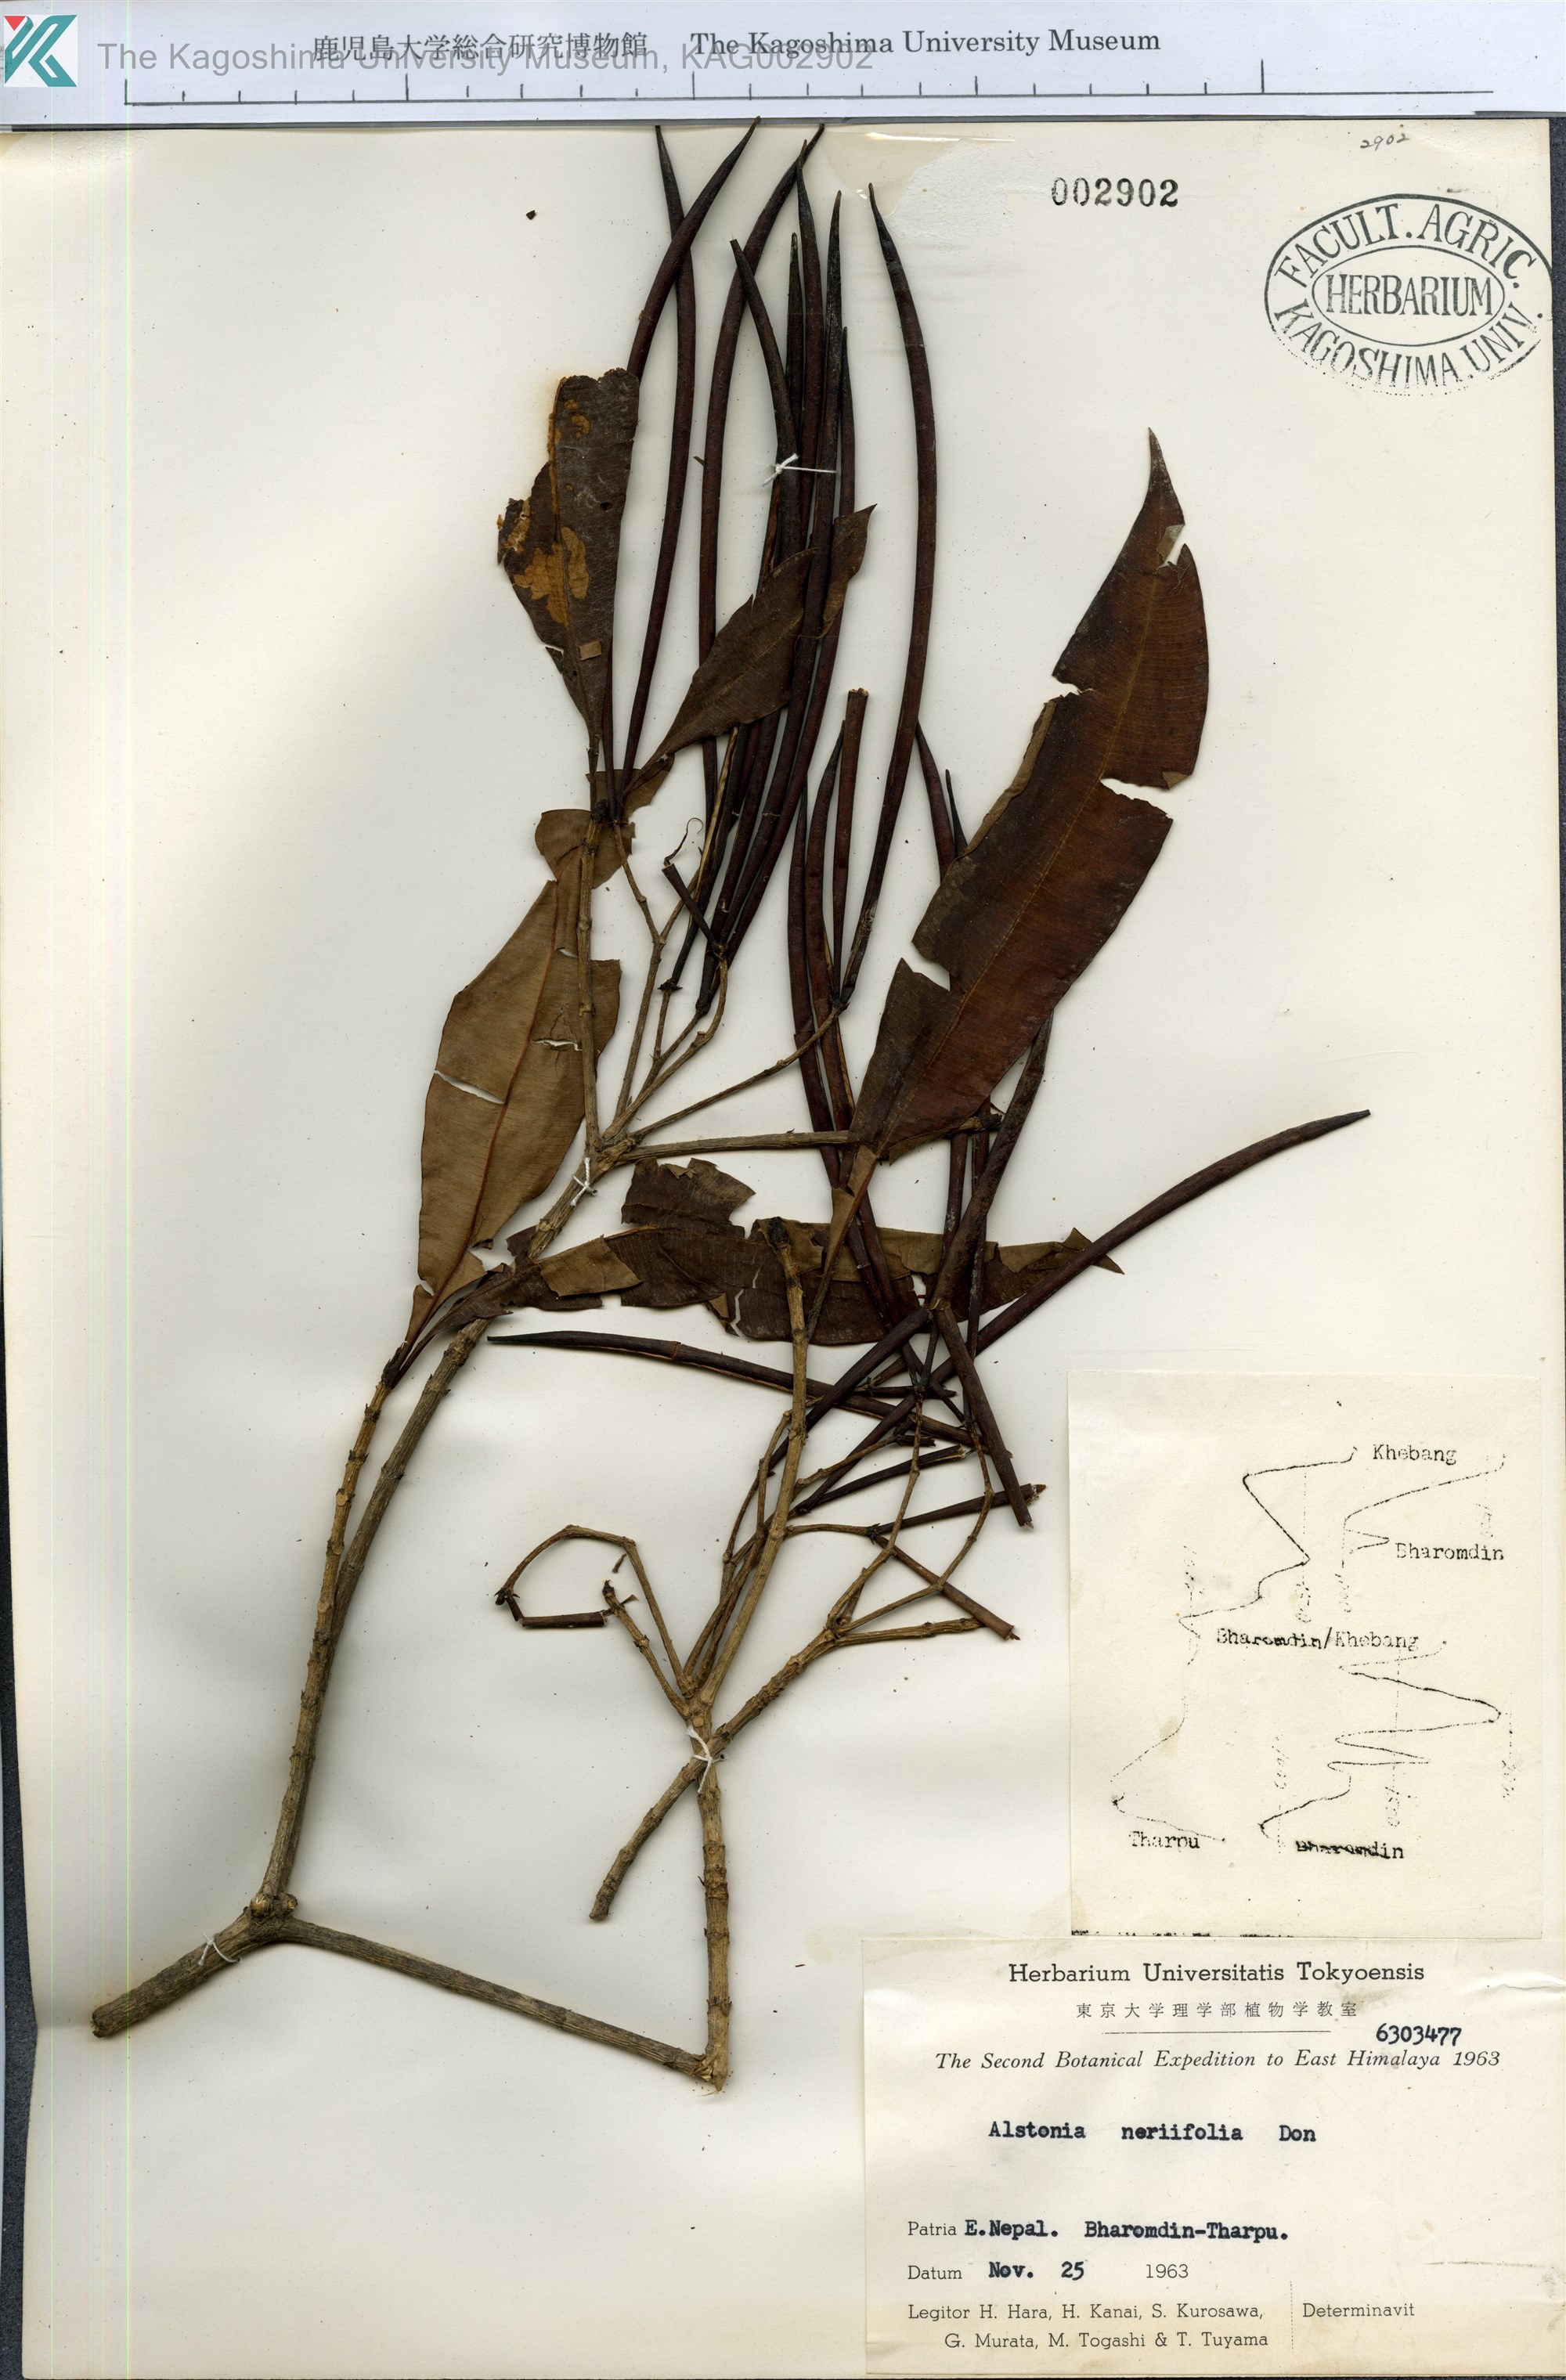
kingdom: Plantae
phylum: Tracheophyta
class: Magnoliopsida
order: Gentianales
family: Apocynaceae
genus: Alstonia
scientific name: Alstonia neriifolia
